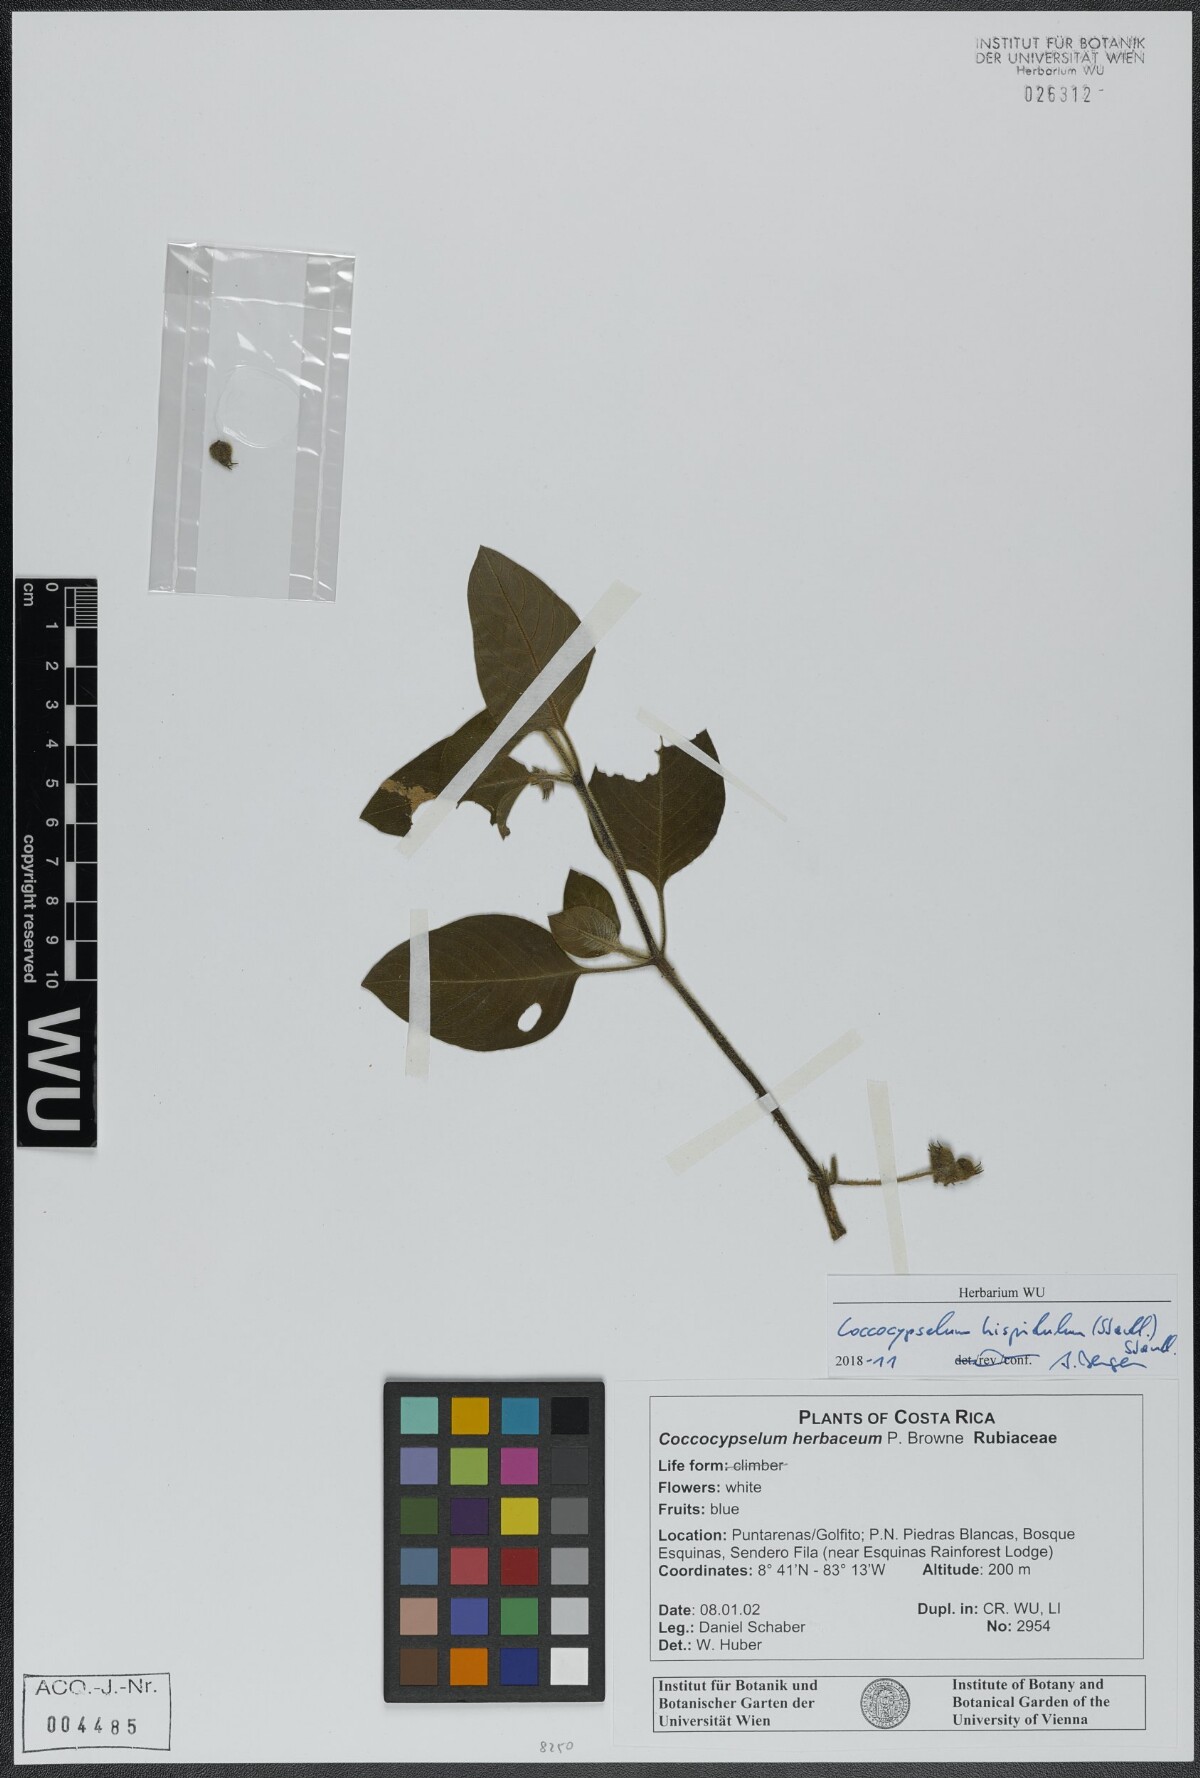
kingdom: Plantae
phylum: Tracheophyta
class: Magnoliopsida
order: Gentianales
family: Rubiaceae
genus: Coccocypselum
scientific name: Coccocypselum herbaceum
